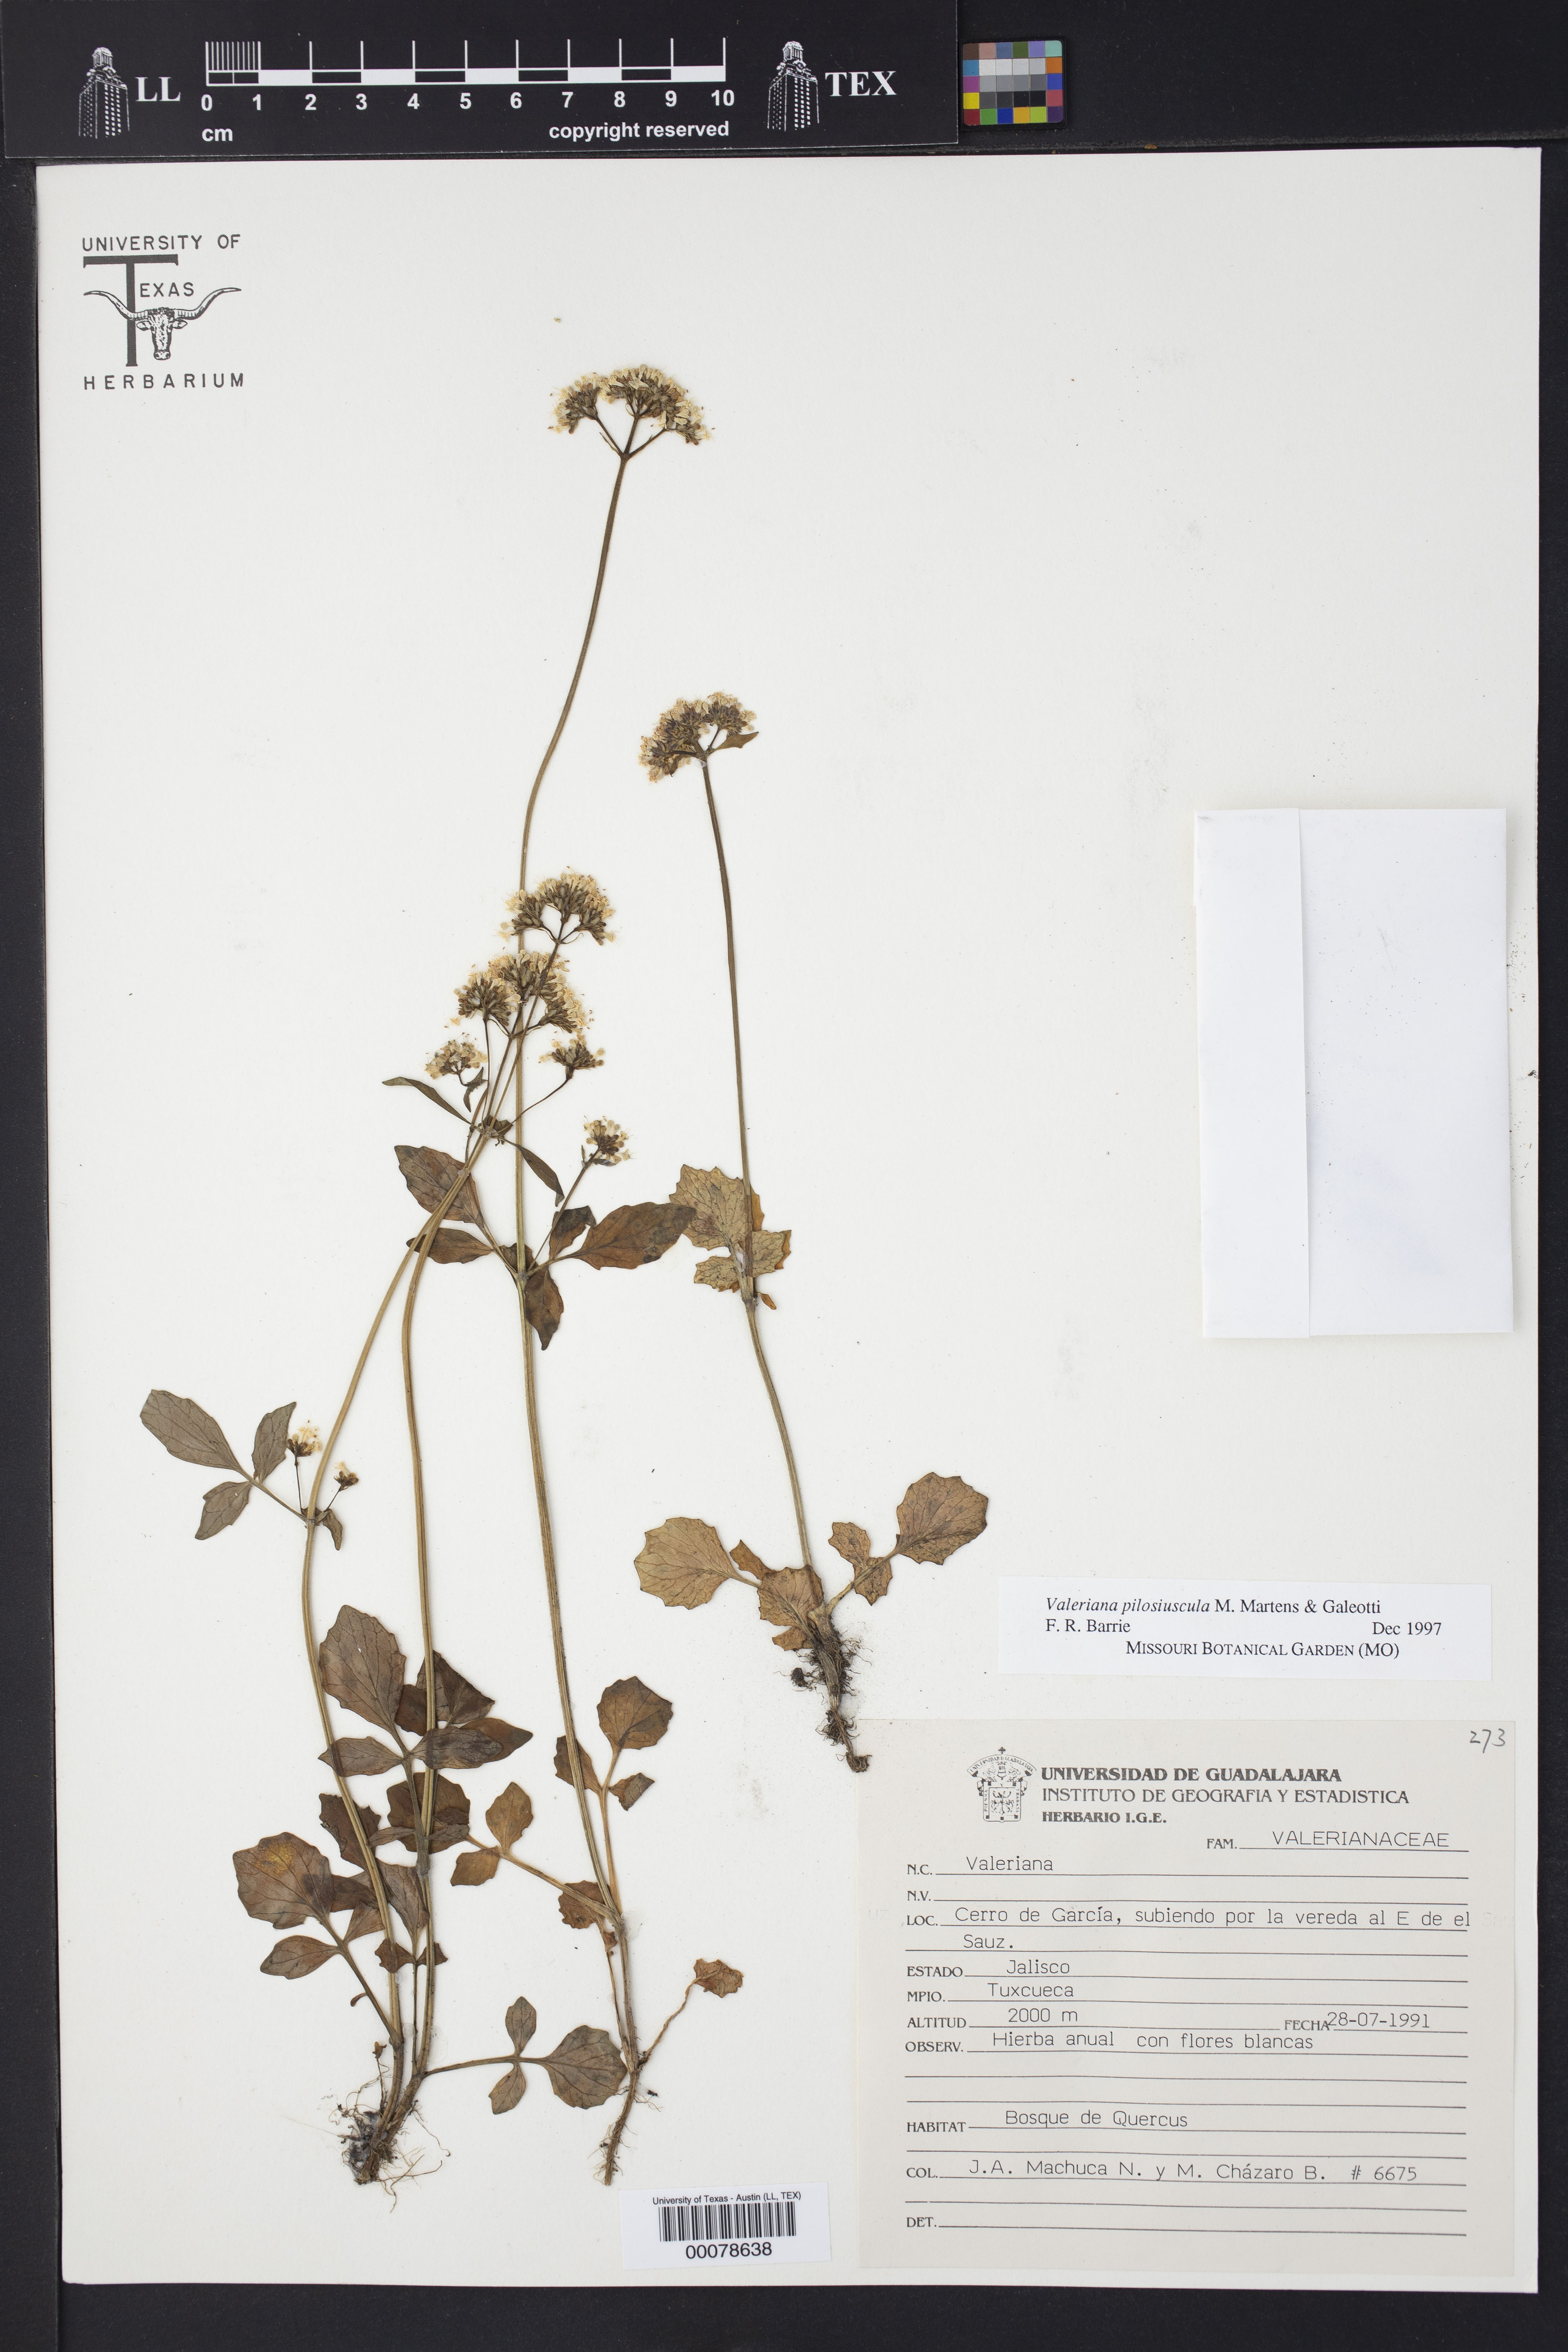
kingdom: Plantae
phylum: Tracheophyta
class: Magnoliopsida
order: Dipsacales
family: Caprifoliaceae
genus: Valeriana
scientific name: Valeriana pilosiuscula
